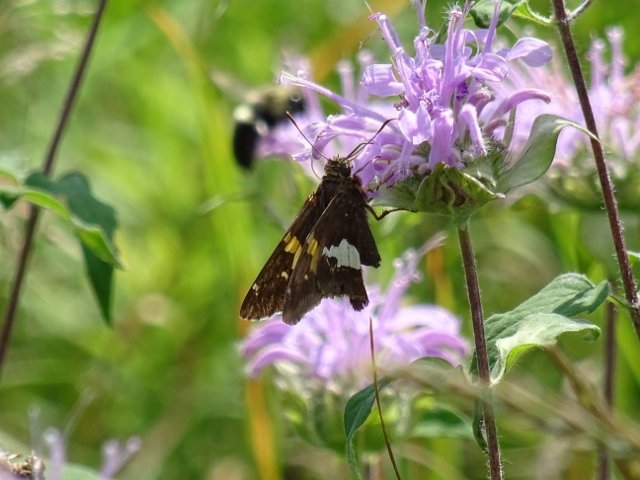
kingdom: Animalia
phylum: Arthropoda
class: Insecta
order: Lepidoptera
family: Hesperiidae
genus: Epargyreus
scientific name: Epargyreus clarus
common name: Silver-spotted Skipper
